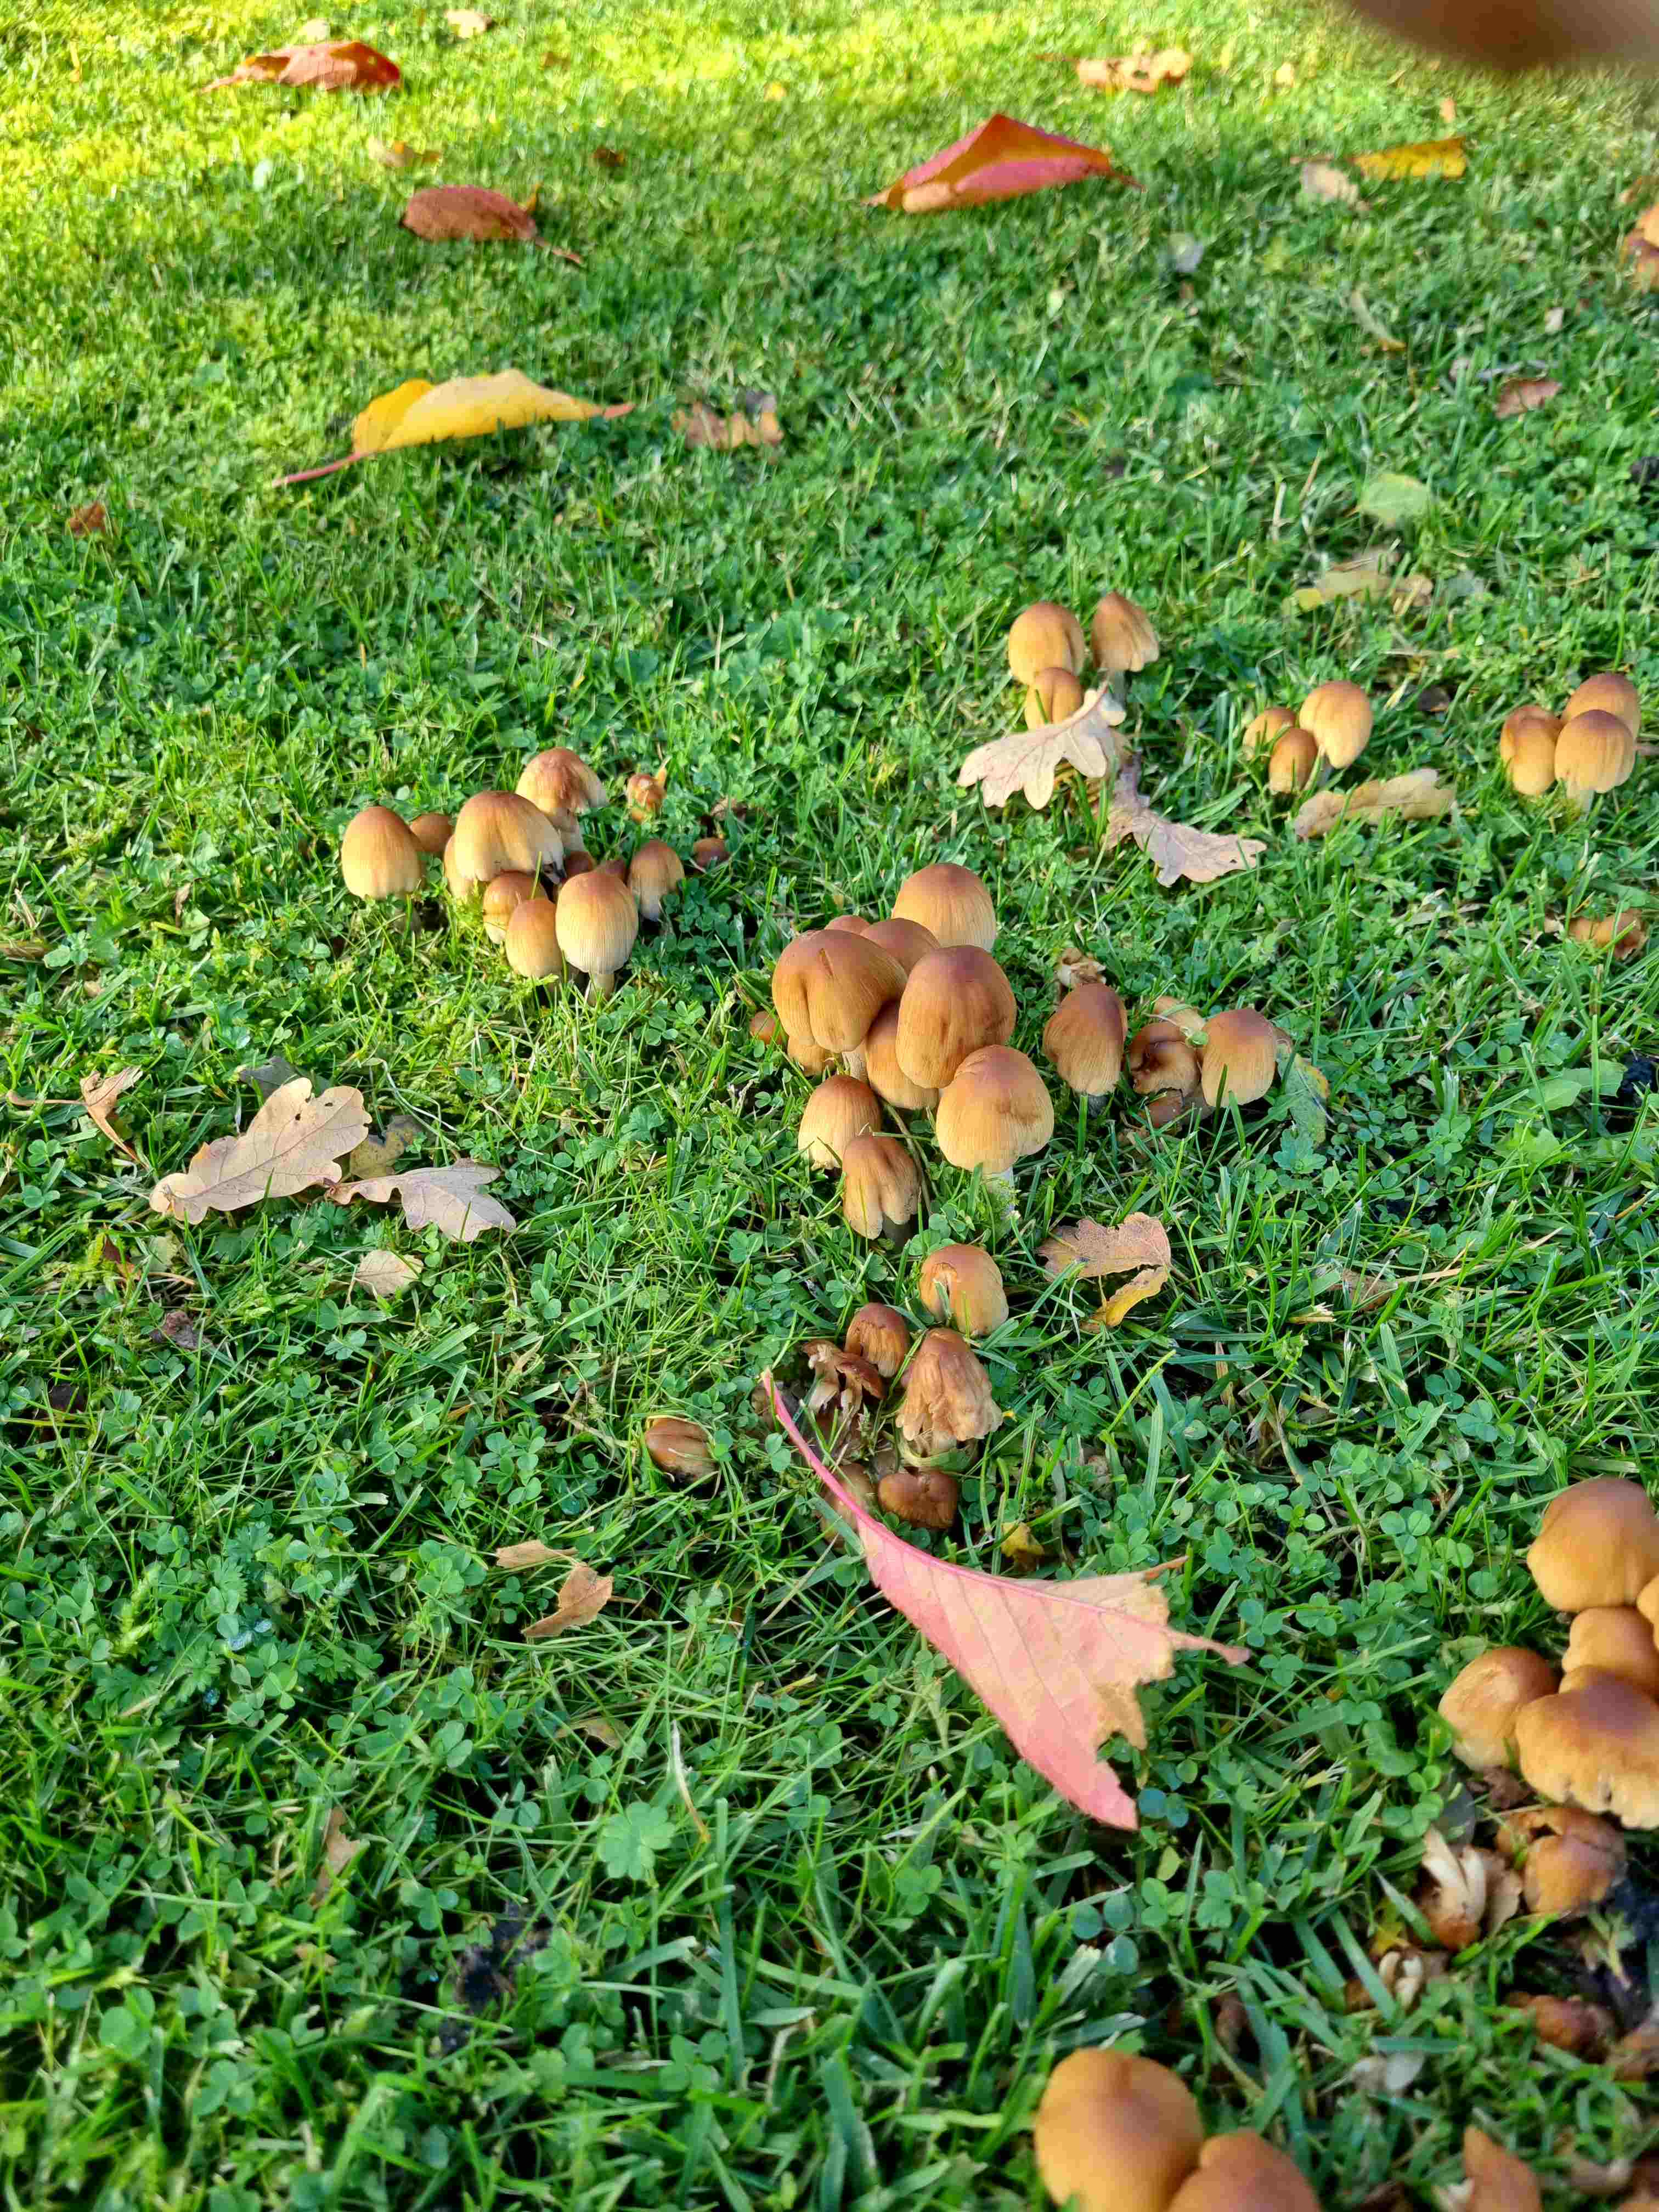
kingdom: Fungi
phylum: Basidiomycota
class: Agaricomycetes
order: Agaricales
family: Psathyrellaceae
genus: Coprinellus
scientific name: Coprinellus
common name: blækhat
